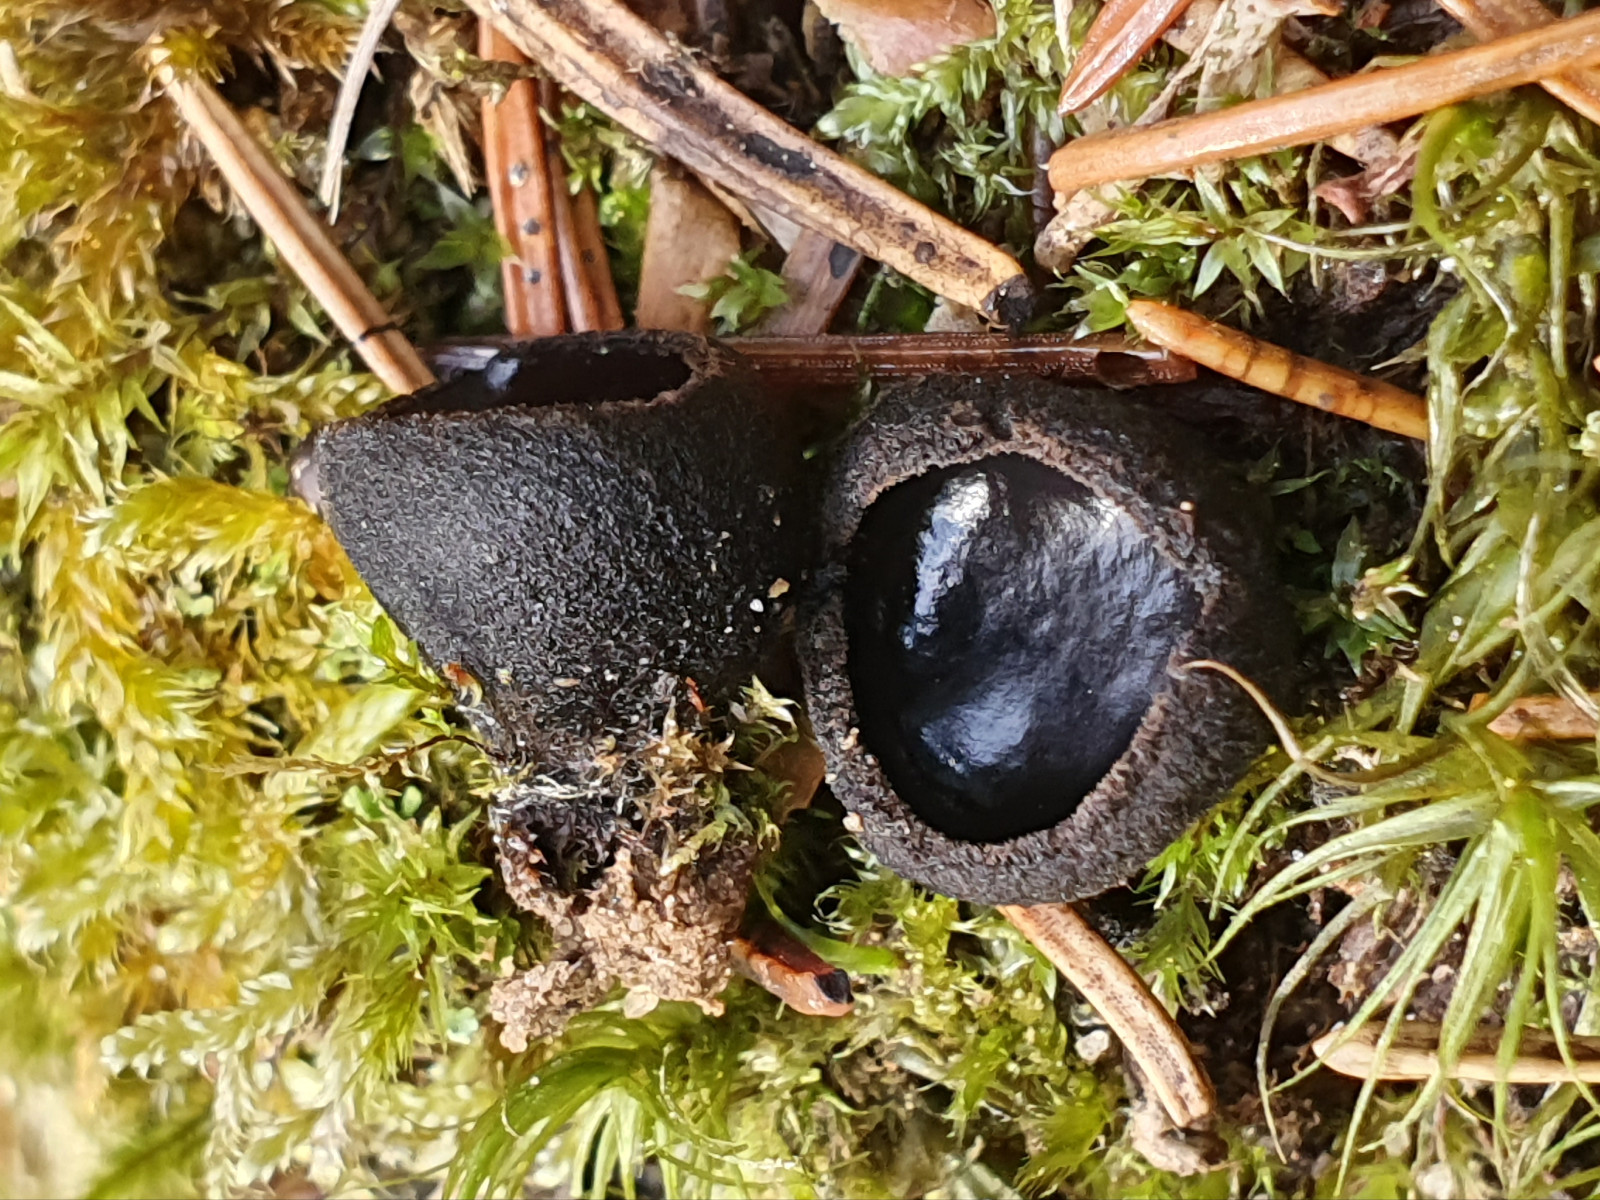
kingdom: Fungi
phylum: Ascomycota
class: Pezizomycetes
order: Pezizales
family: Sarcosomataceae
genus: Pseudoplectania
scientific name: Pseudoplectania nigrella
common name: almindelig sortbæger
